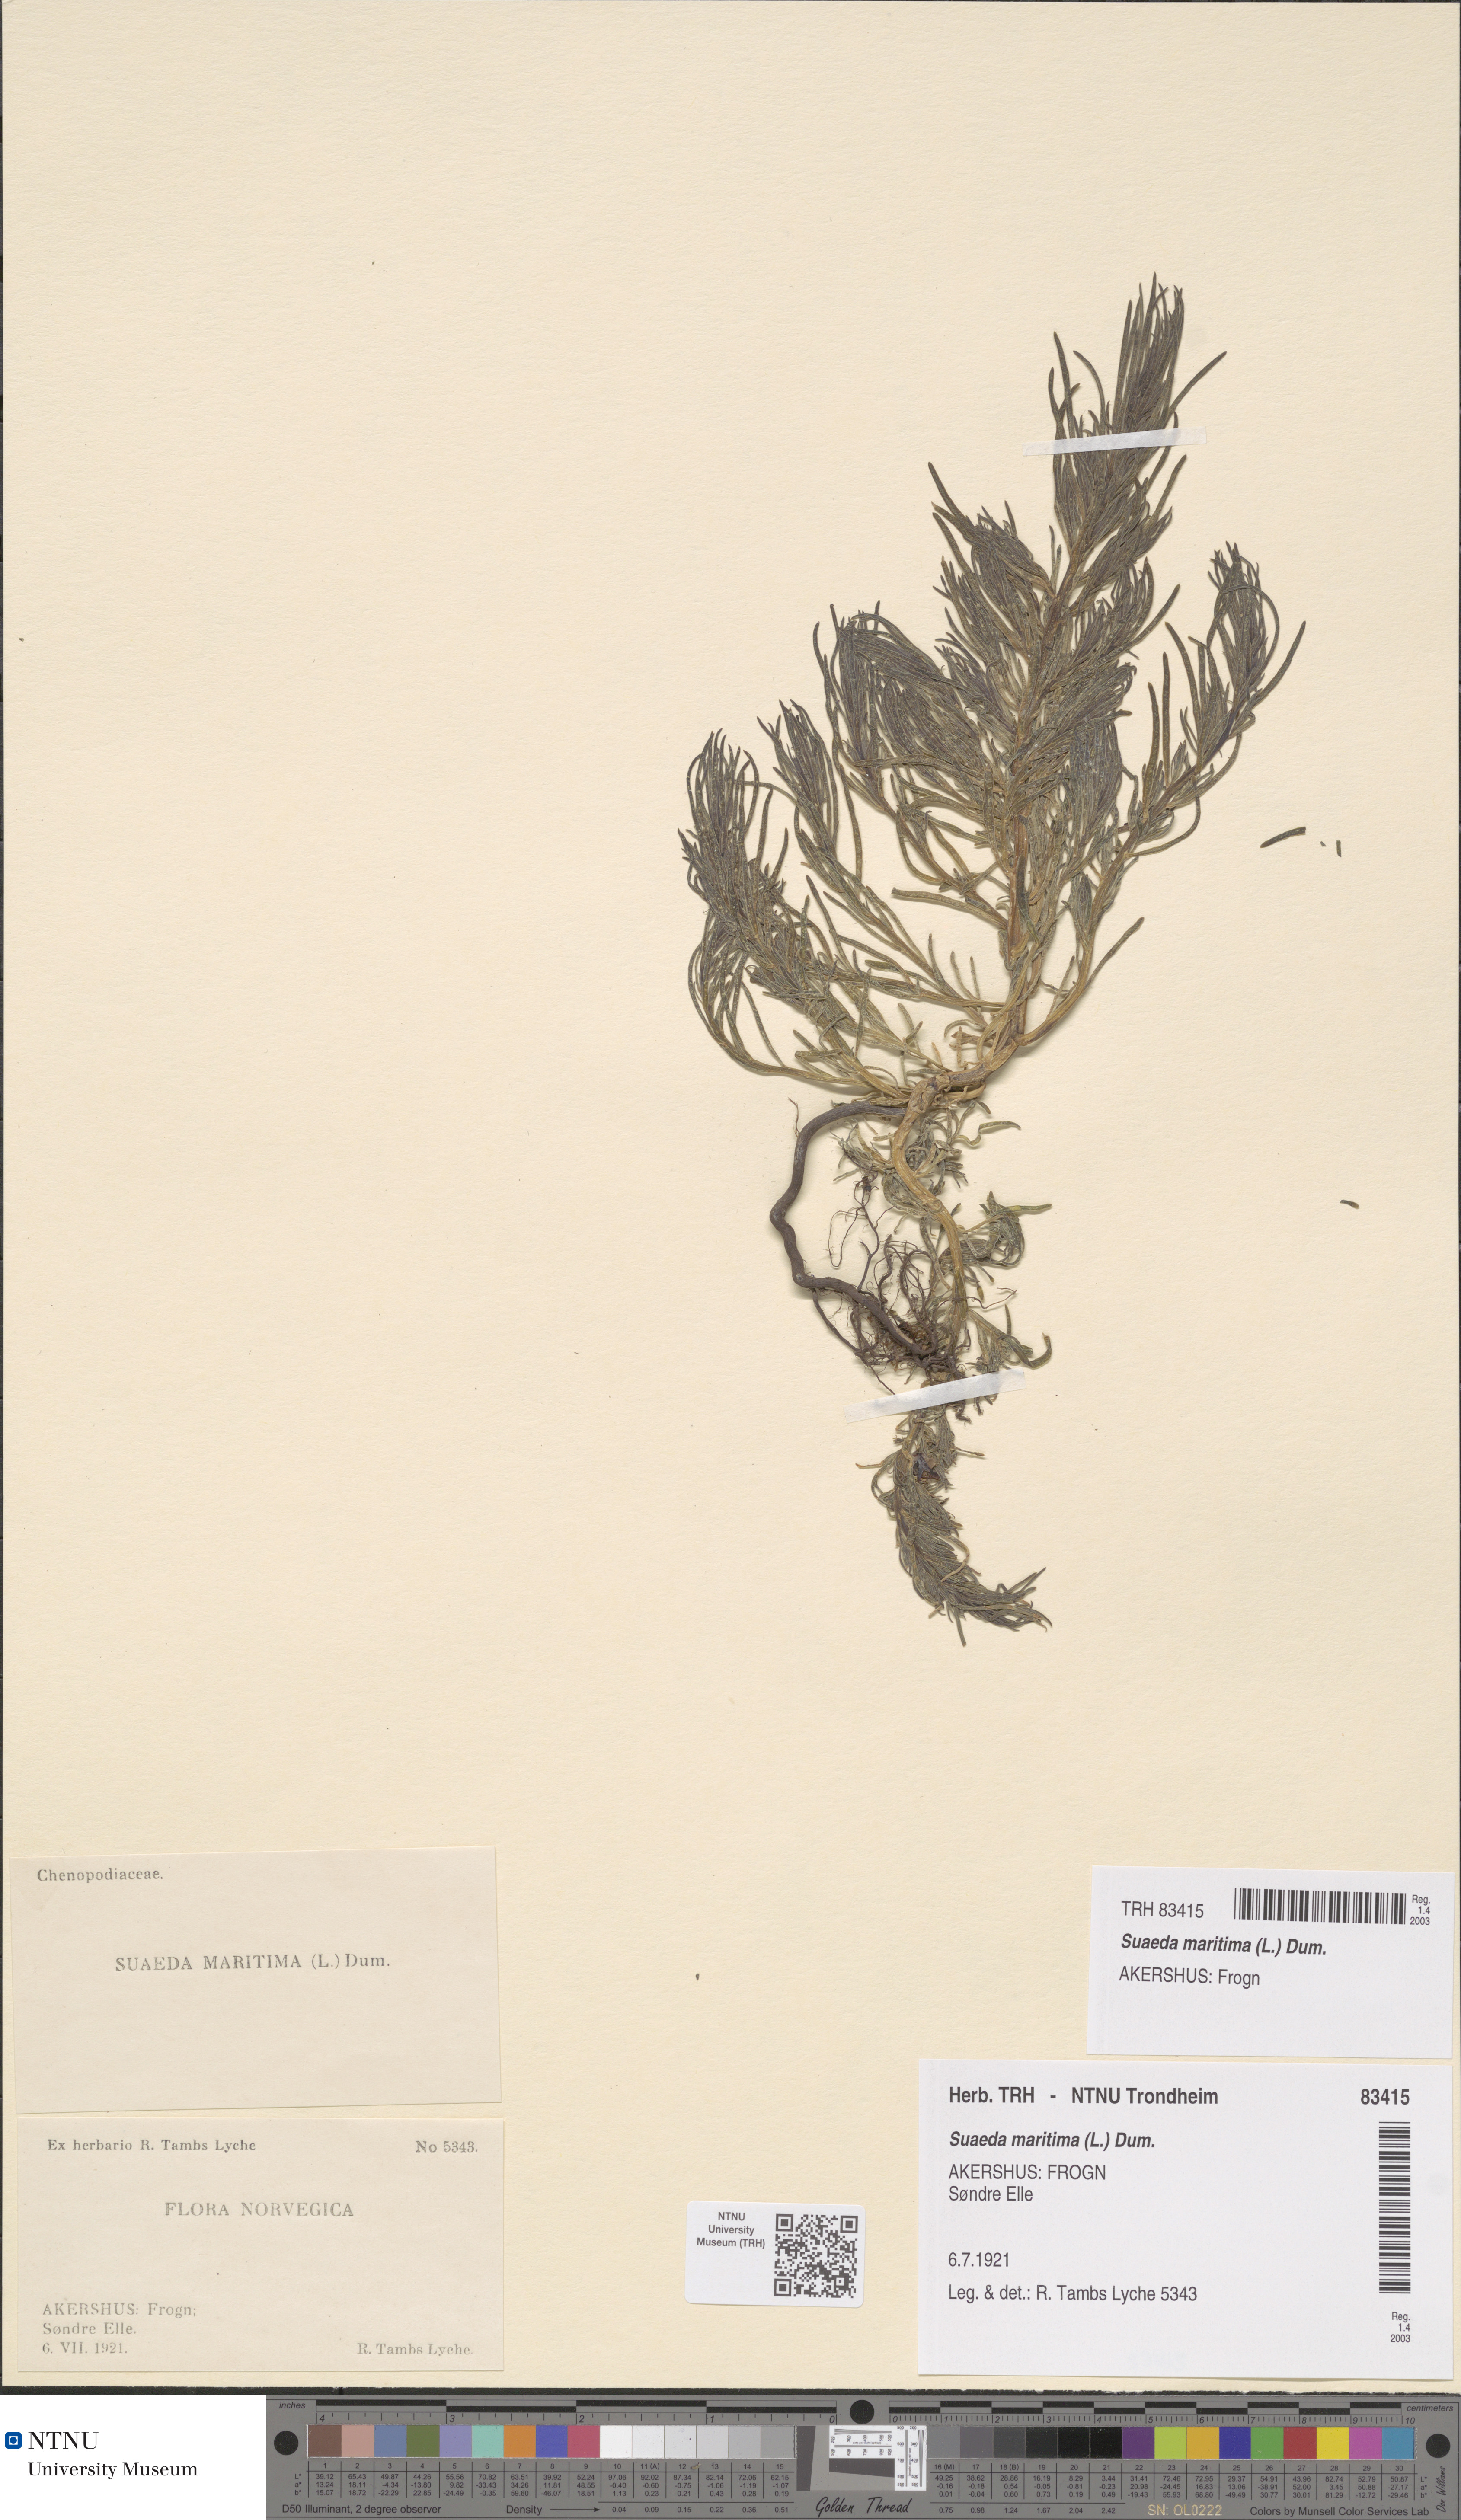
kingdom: Plantae
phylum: Tracheophyta
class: Magnoliopsida
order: Caryophyllales
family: Amaranthaceae
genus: Suaeda
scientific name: Suaeda maritima
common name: Annual sea-blite
